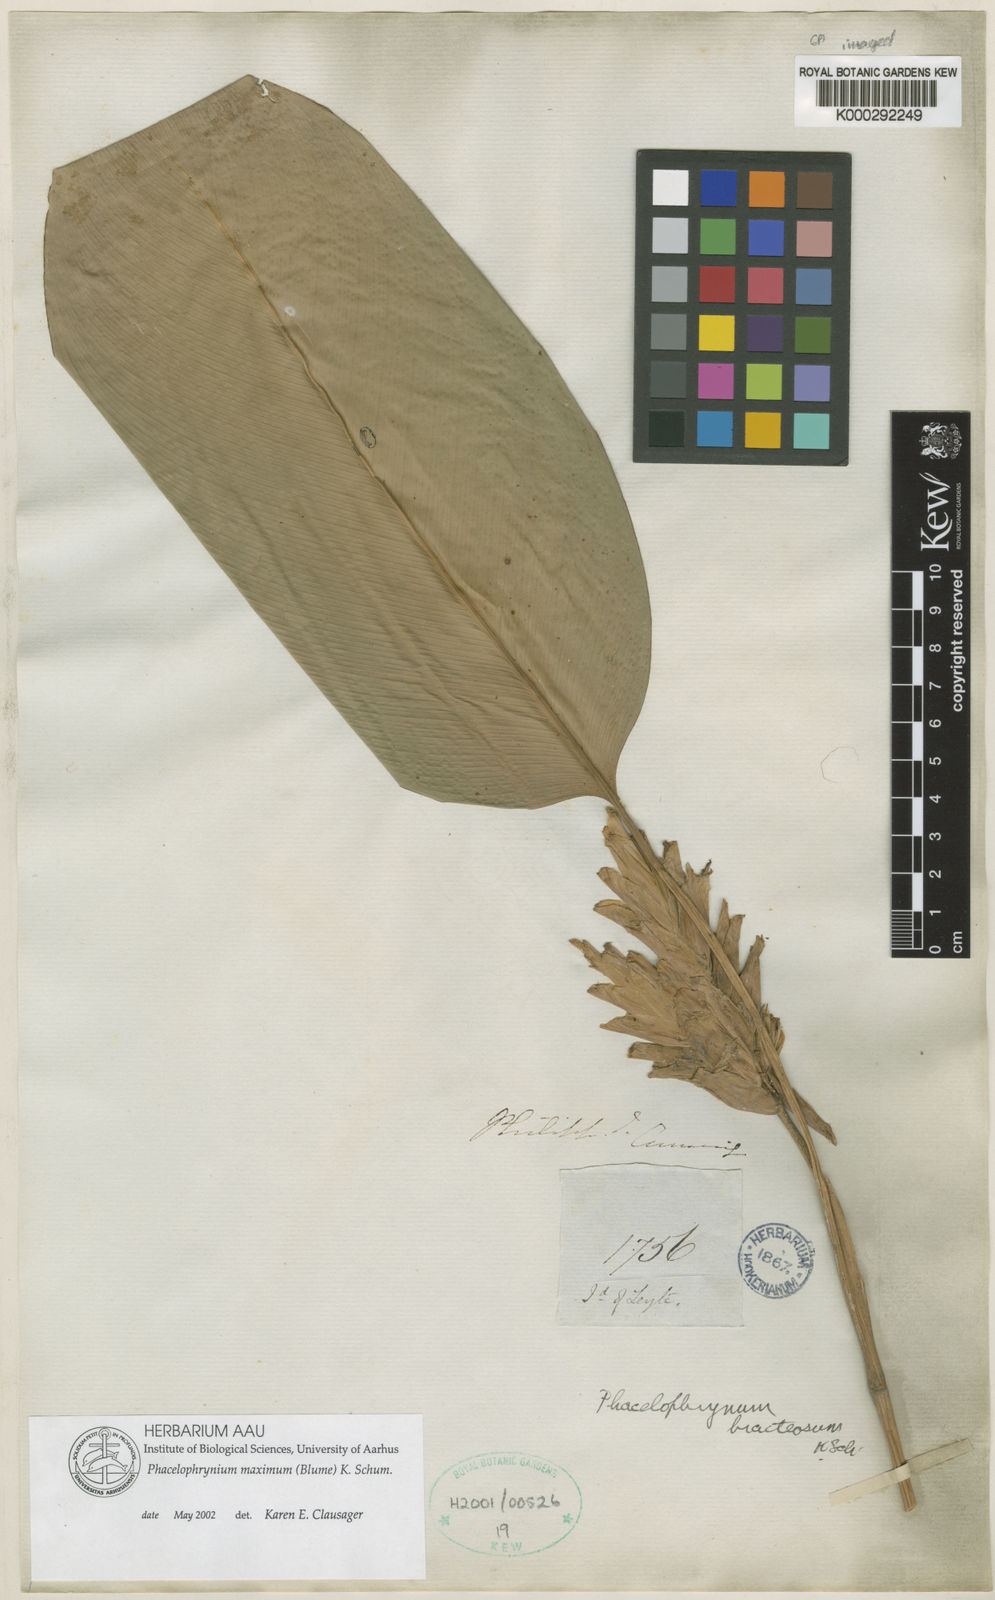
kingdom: Plantae
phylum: Tracheophyta
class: Liliopsida
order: Zingiberales
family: Marantaceae
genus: Phrynium
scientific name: Phrynium maximum
